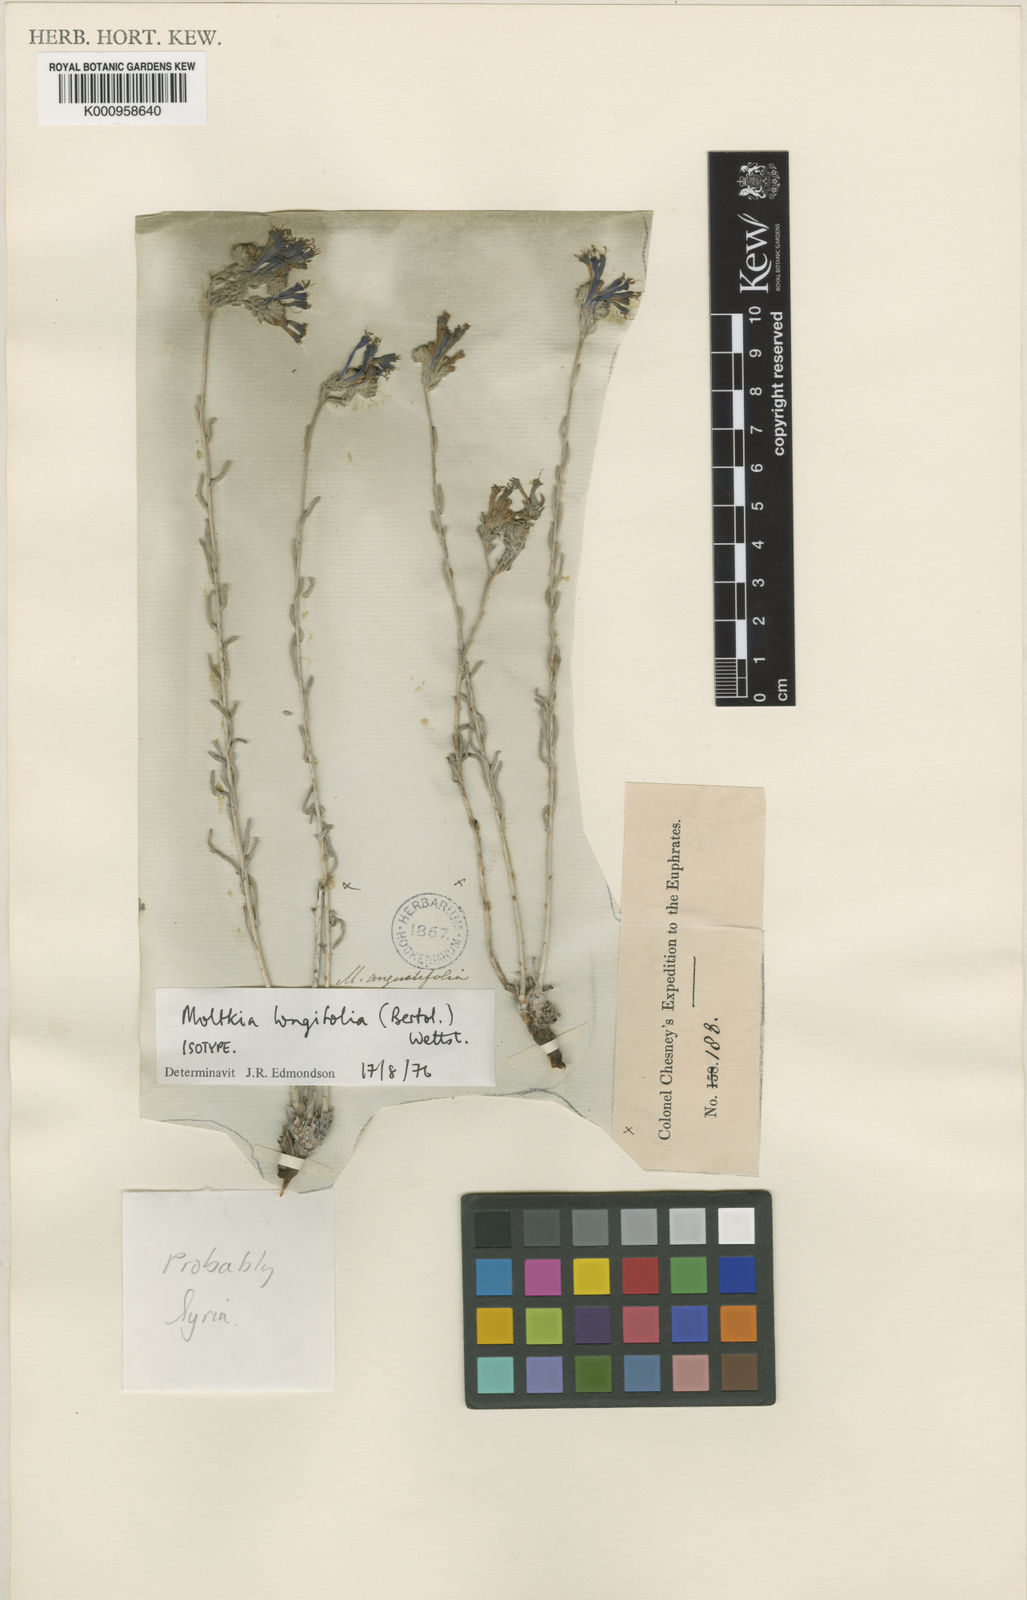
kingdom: Plantae
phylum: Tracheophyta
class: Magnoliopsida
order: Boraginales
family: Boraginaceae
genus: Moltkia
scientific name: Moltkia
